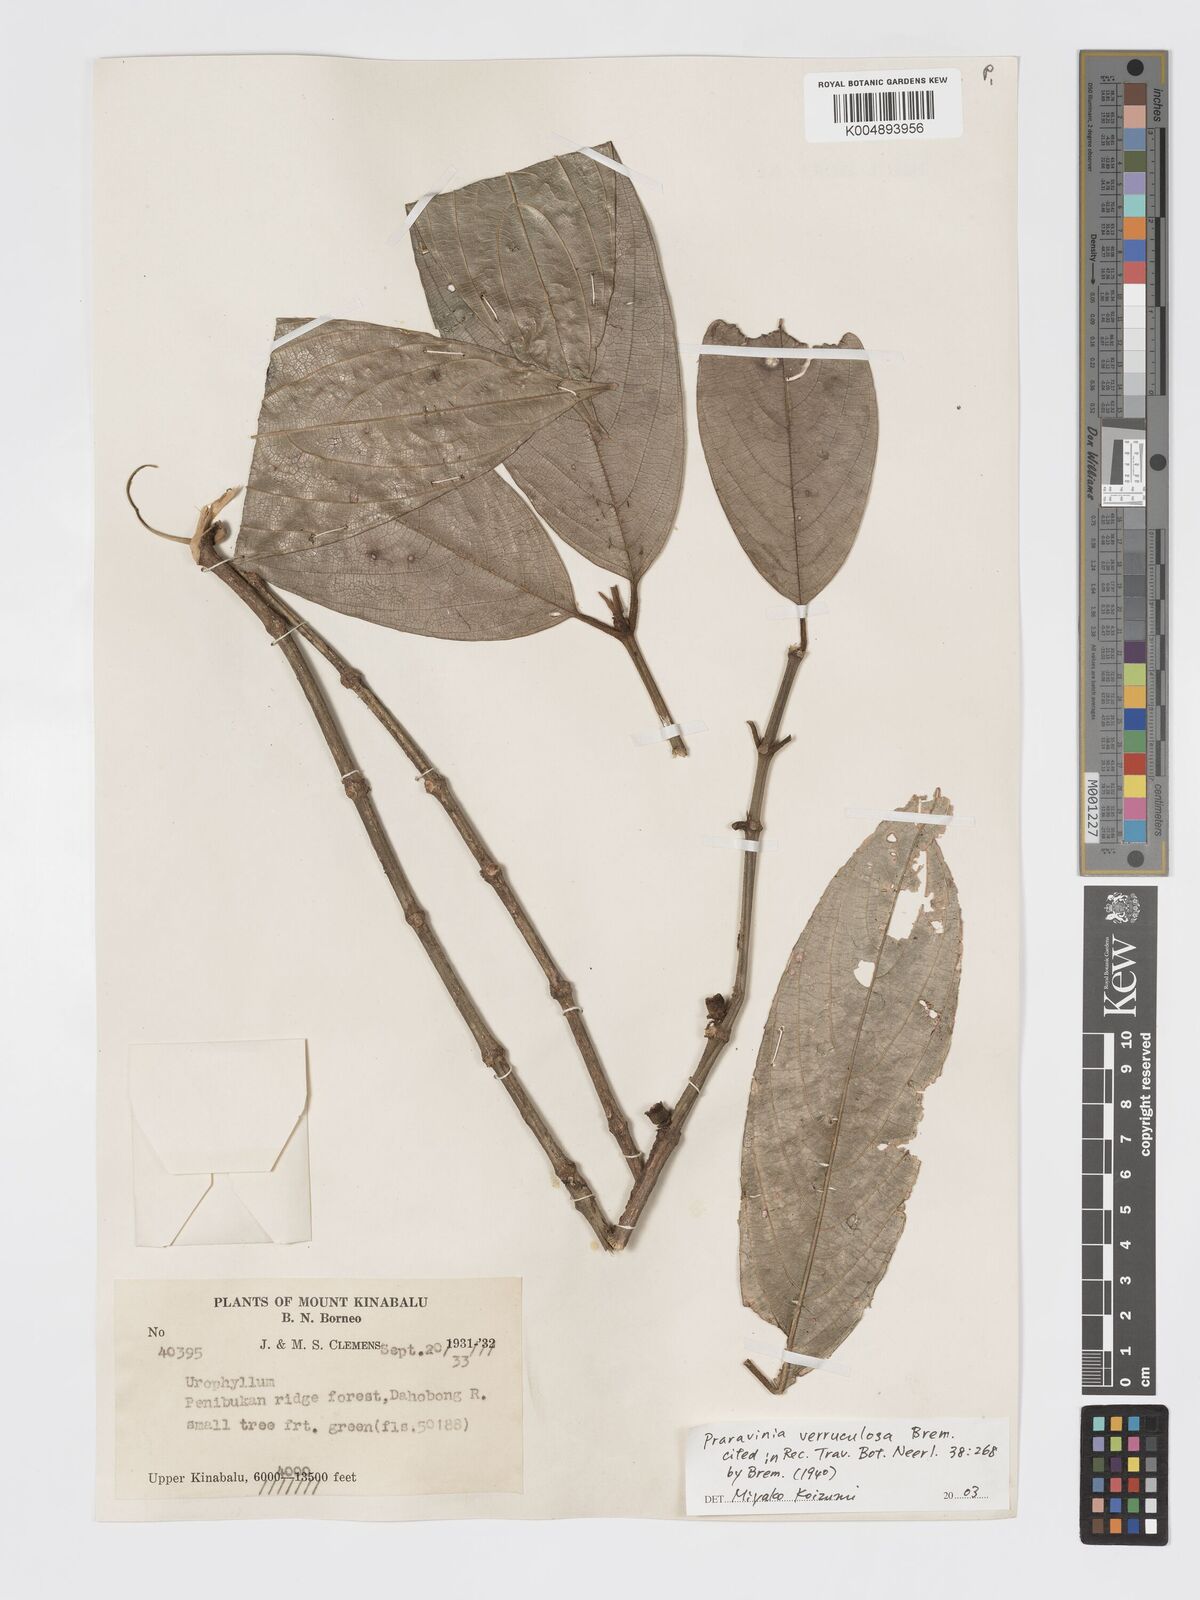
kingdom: Plantae
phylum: Tracheophyta
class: Magnoliopsida
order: Gentianales
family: Rubiaceae
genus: Praravinia
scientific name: Praravinia verruculosa
